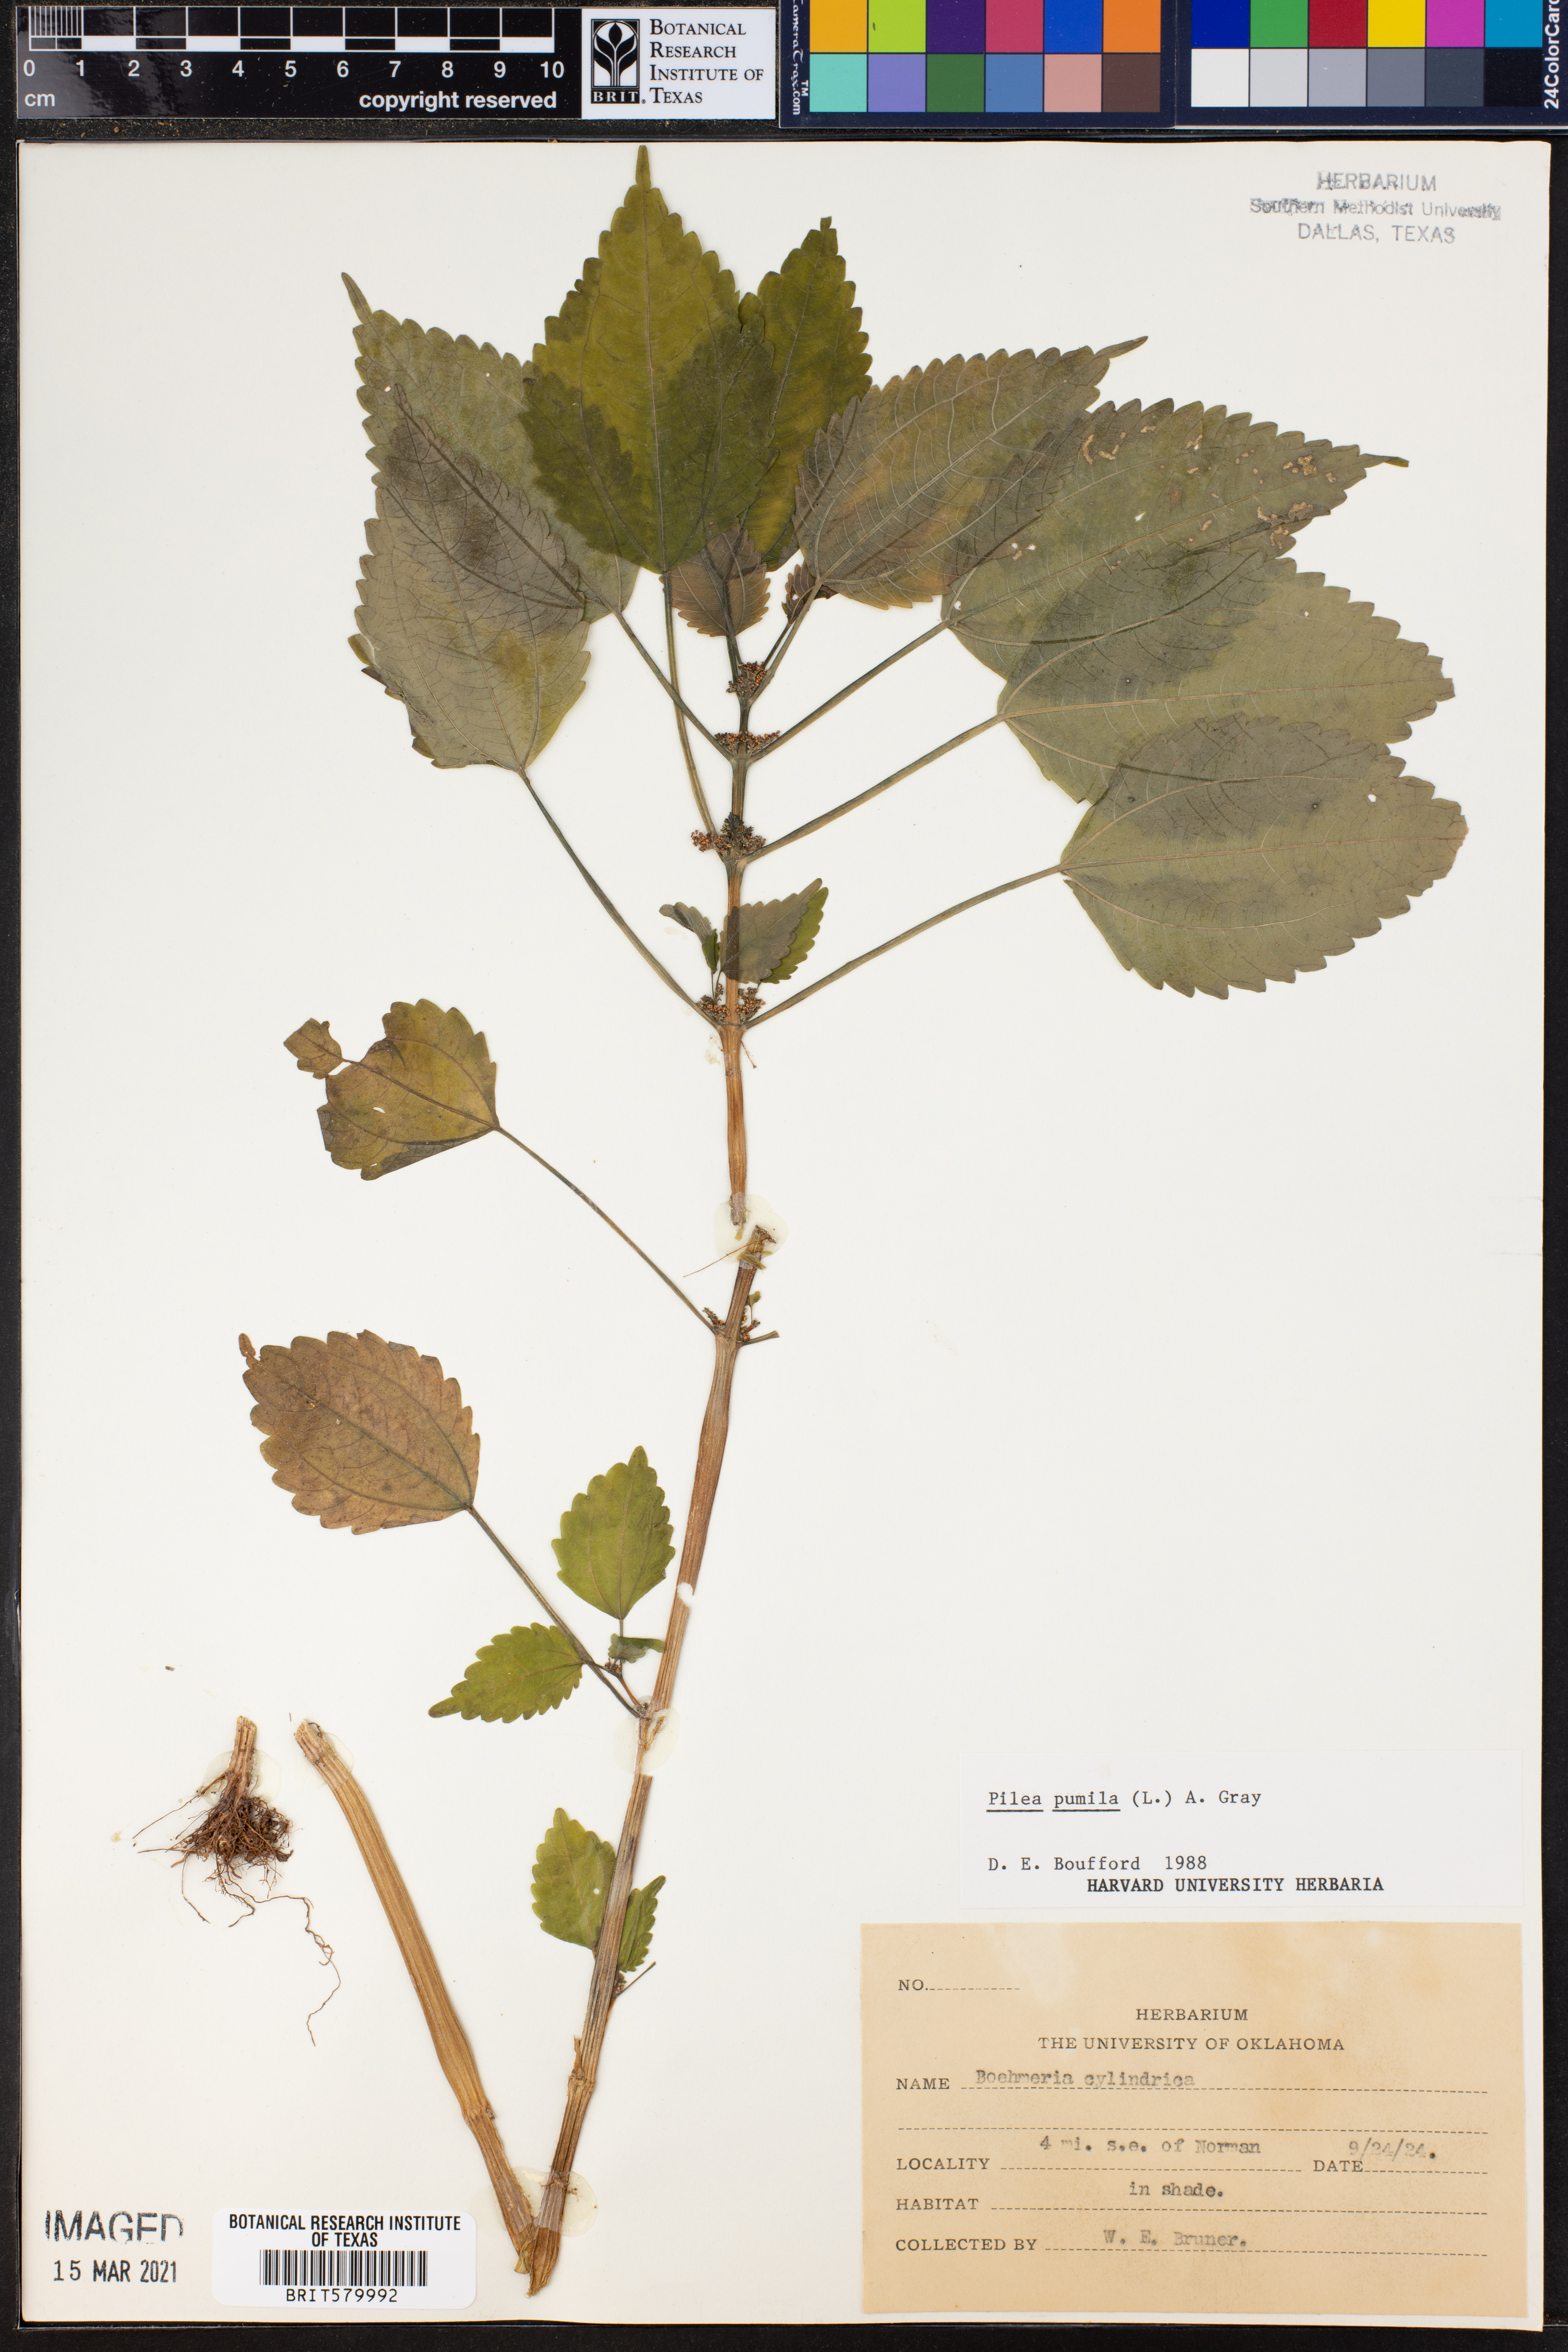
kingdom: Plantae
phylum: Tracheophyta
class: Magnoliopsida
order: Rosales
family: Urticaceae
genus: Pilea
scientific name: Pilea pumila
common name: Clearweed
